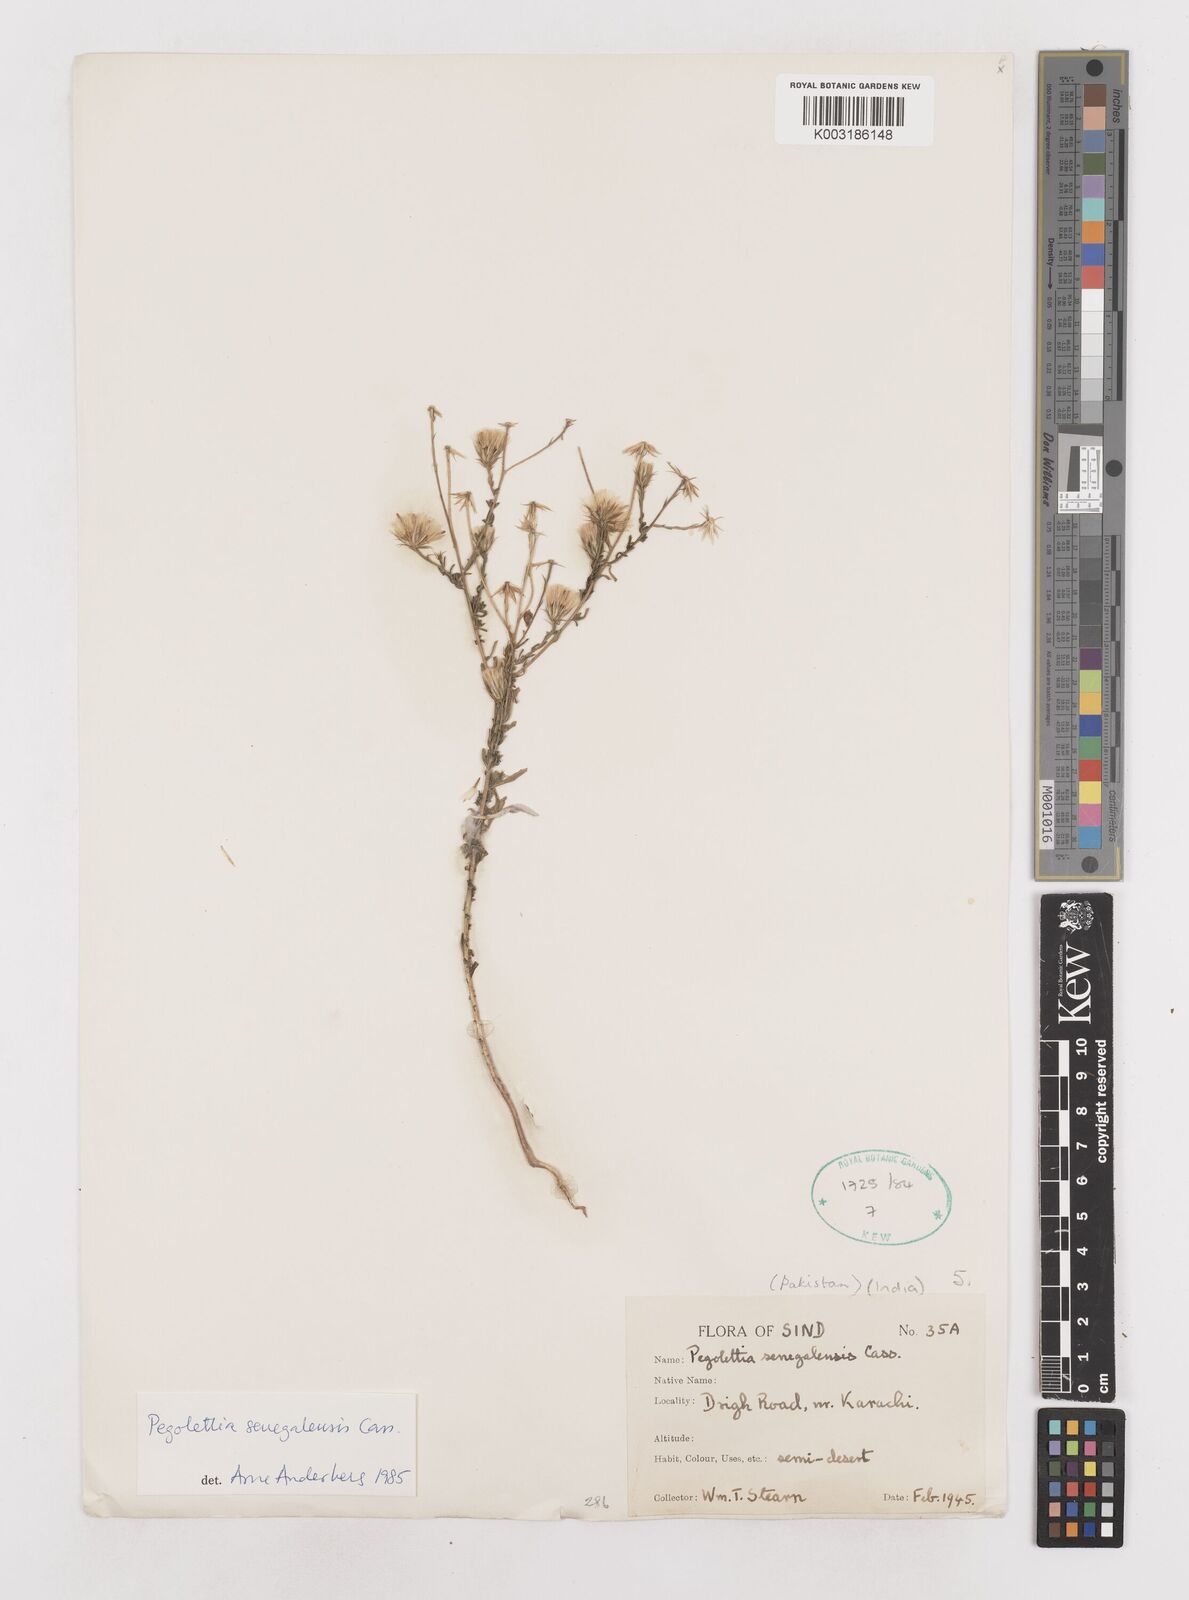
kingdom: Plantae
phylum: Tracheophyta
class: Magnoliopsida
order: Asterales
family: Asteraceae
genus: Pegolettia
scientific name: Pegolettia senegalensis
